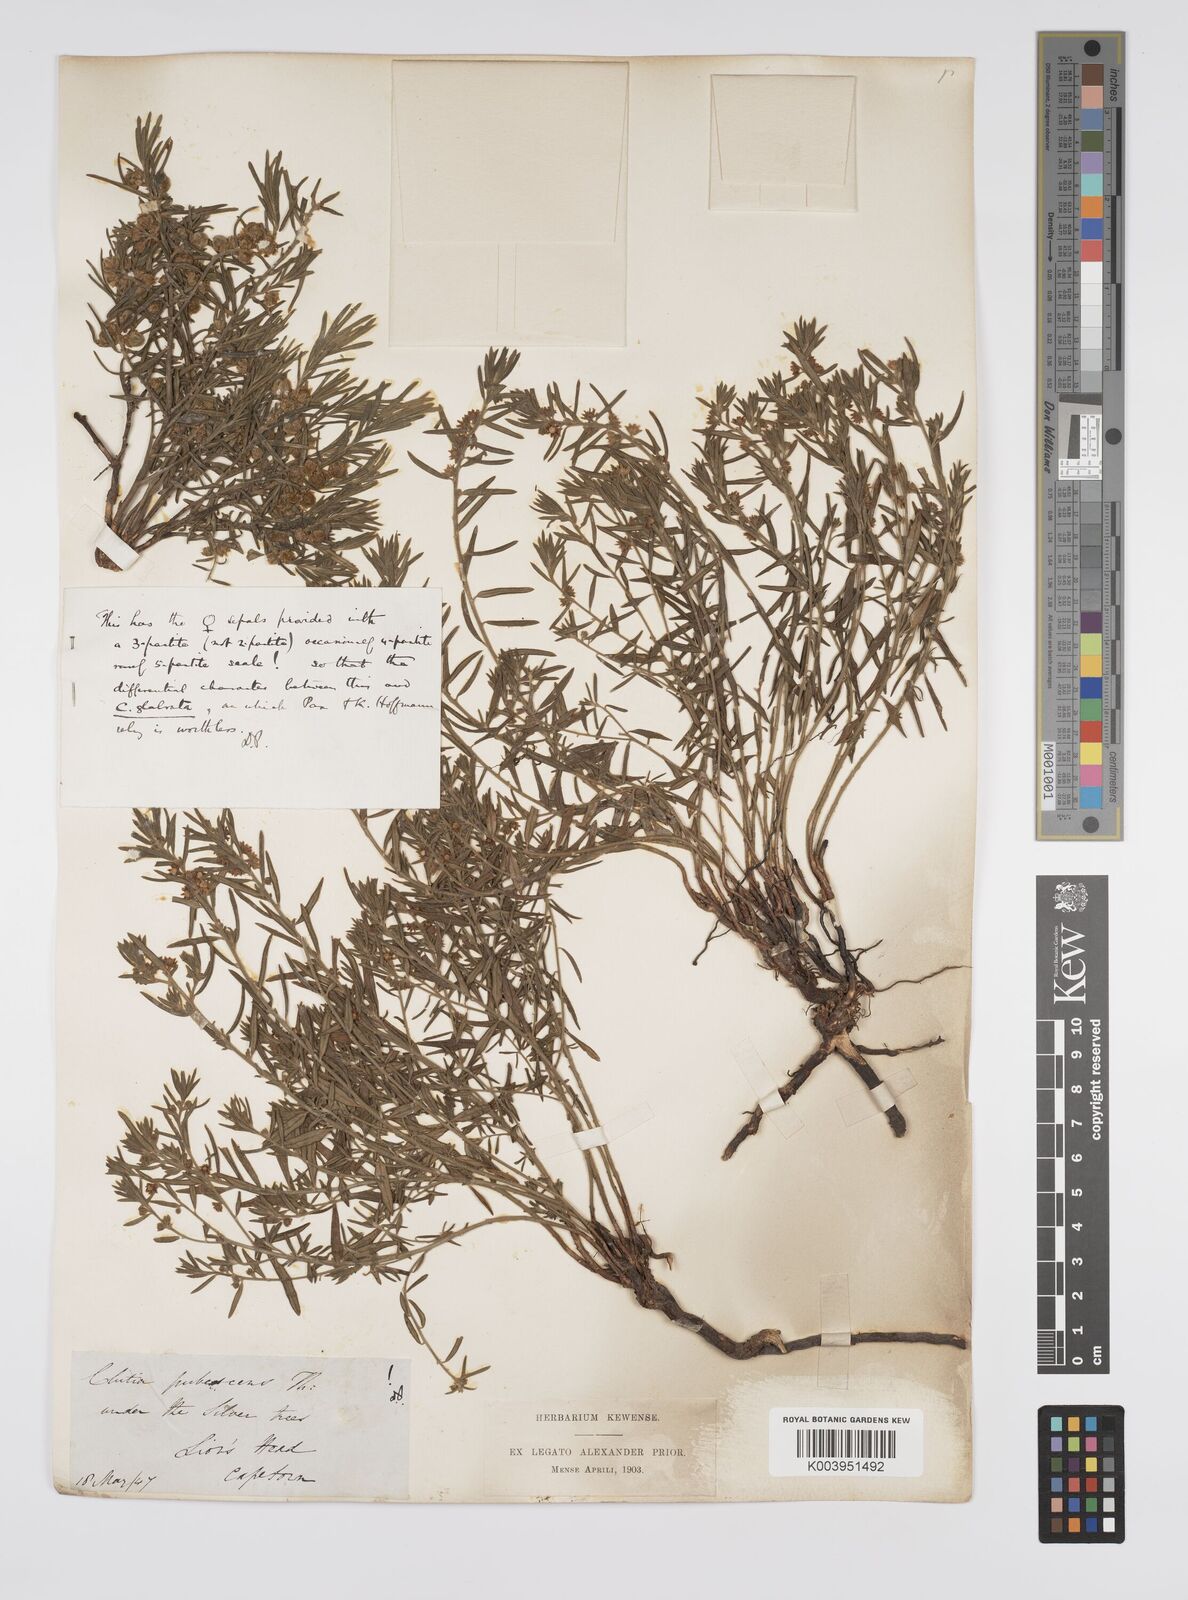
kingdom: Plantae
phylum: Tracheophyta
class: Magnoliopsida
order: Malpighiales
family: Peraceae
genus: Clutia
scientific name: Clutia
